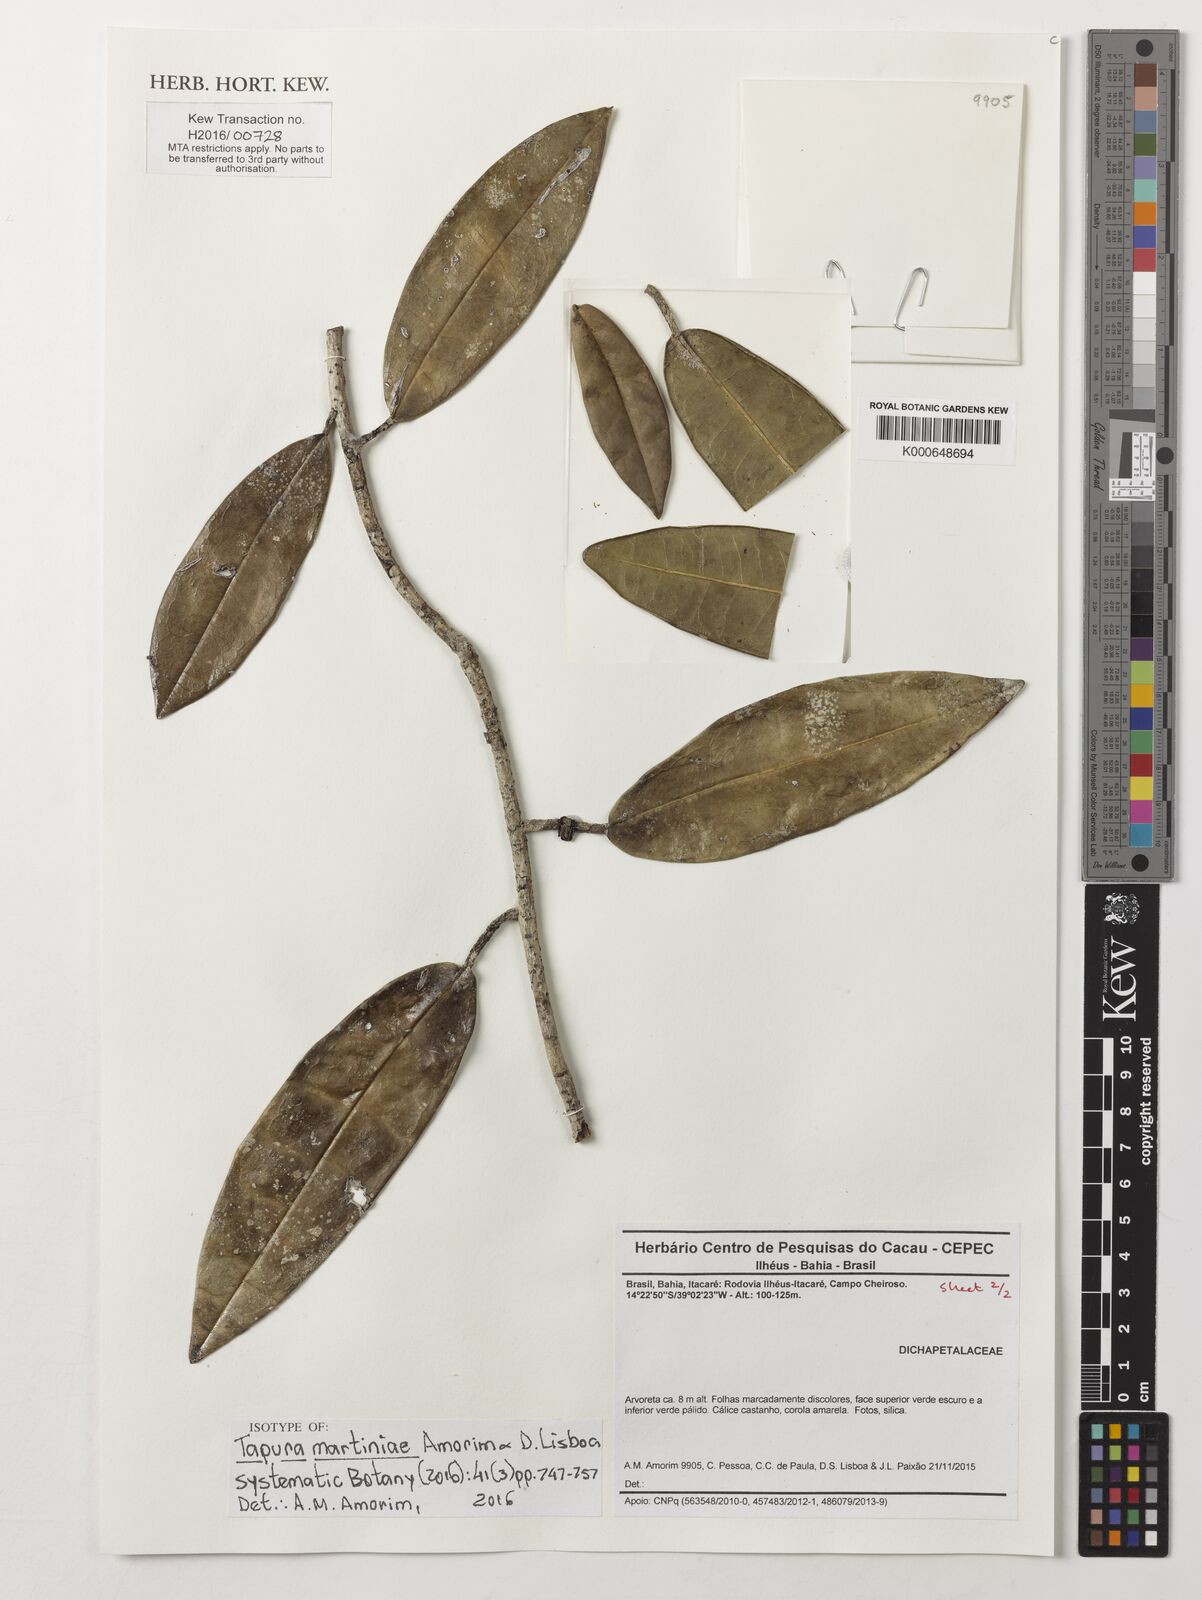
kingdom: Plantae
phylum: Tracheophyta
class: Magnoliopsida
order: Malpighiales
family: Dichapetalaceae
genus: Tapura
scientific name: Tapura martiniae
